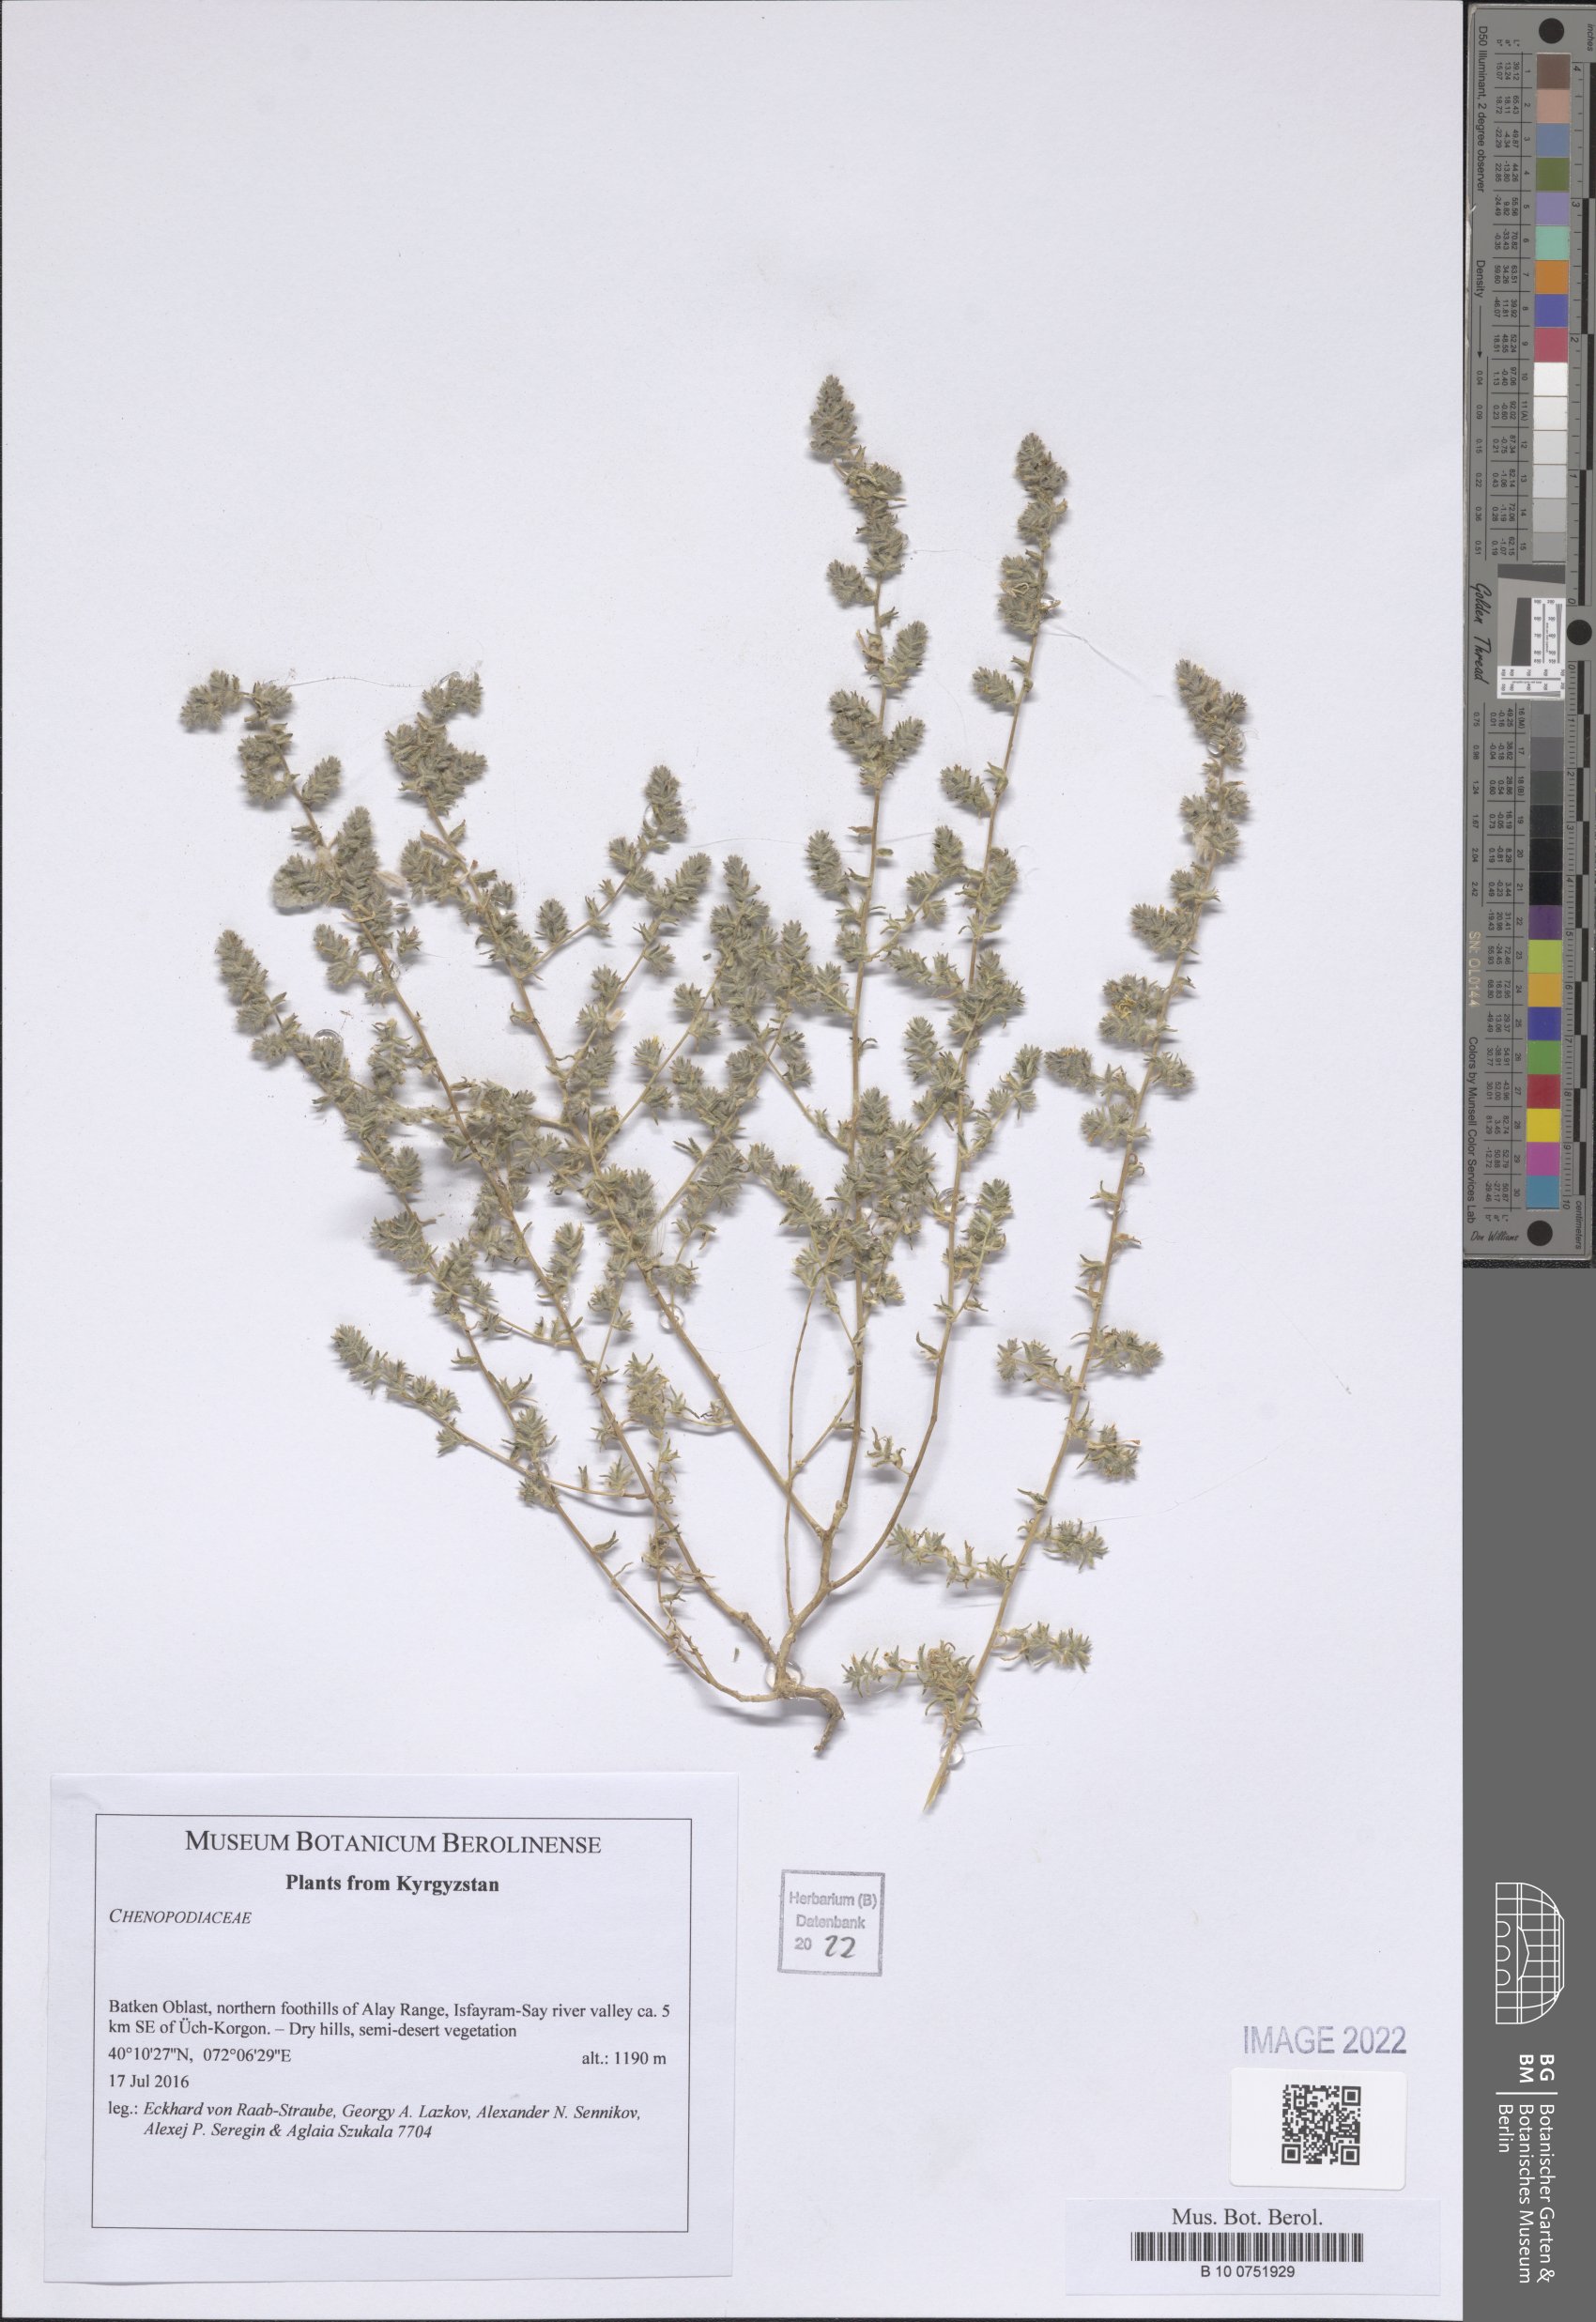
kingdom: Plantae
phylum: Tracheophyta
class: Magnoliopsida
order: Caryophyllales
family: Amaranthaceae
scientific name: Amaranthaceae
